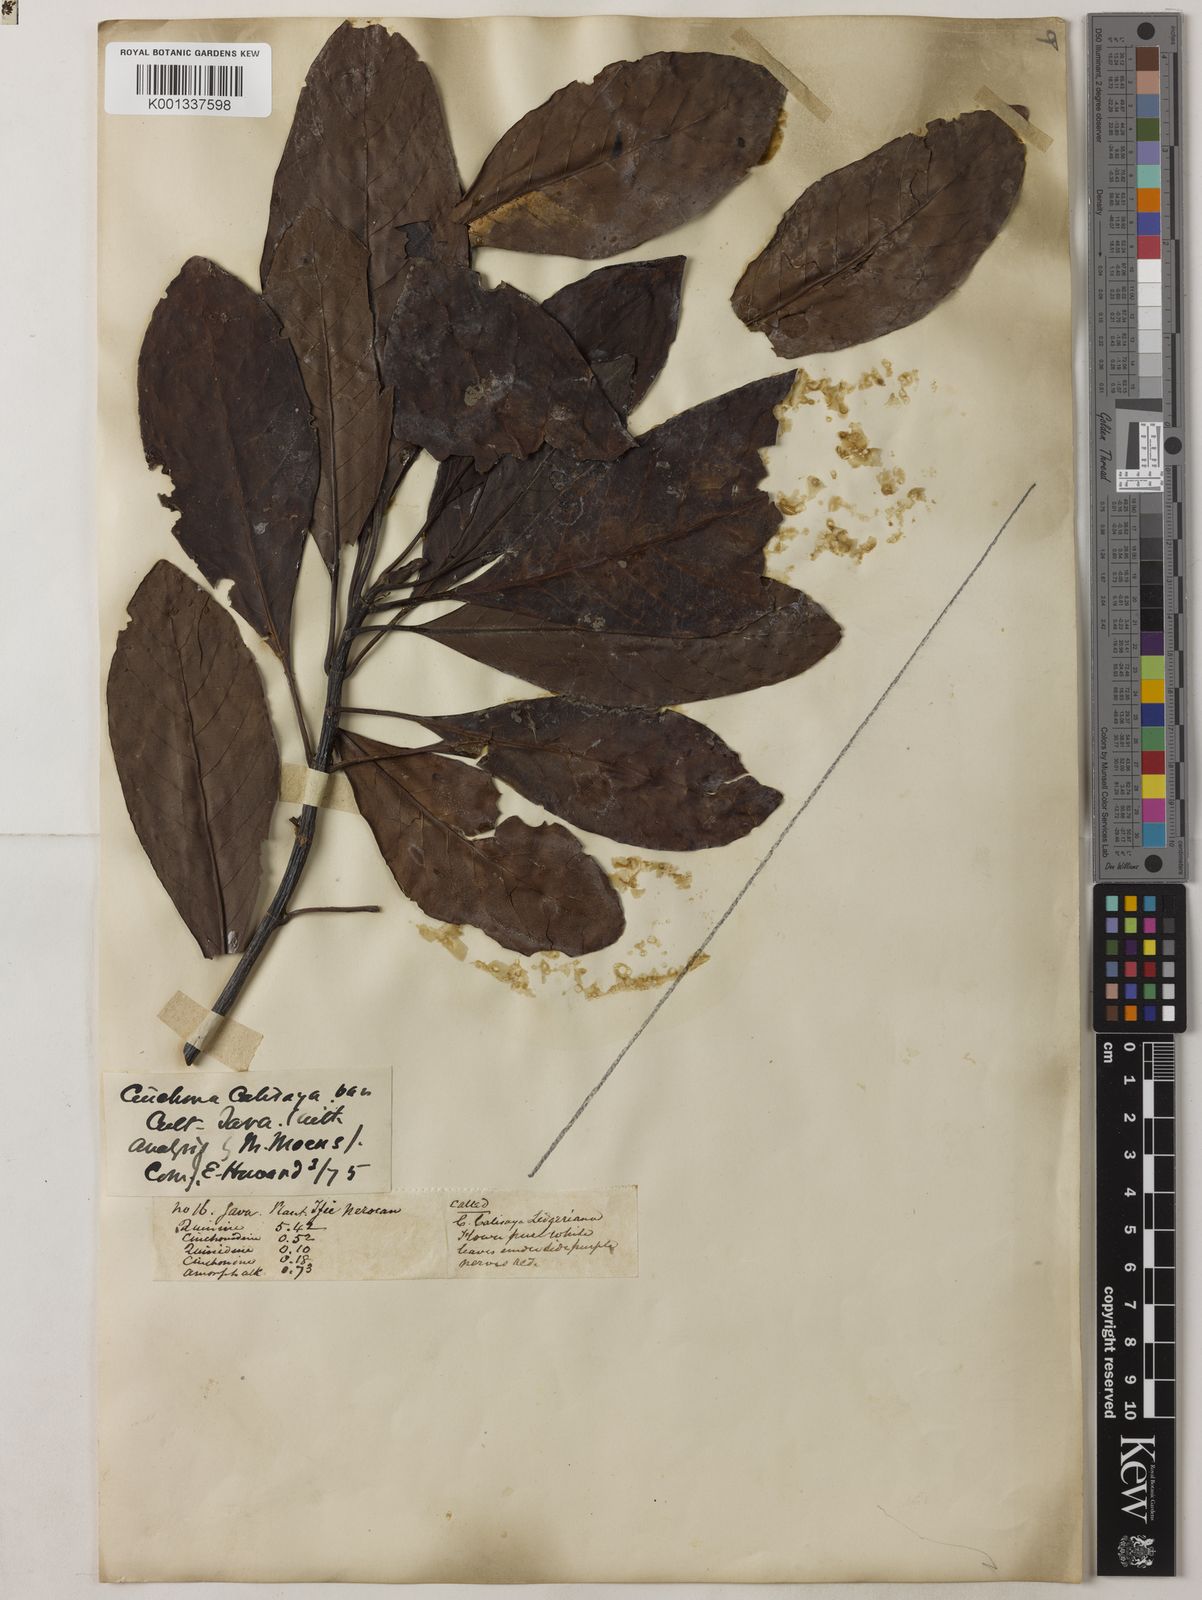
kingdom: Plantae
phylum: Tracheophyta
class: Magnoliopsida
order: Gentianales
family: Rubiaceae
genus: Cinchona
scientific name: Cinchona calisaya
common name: Ledgerbark
